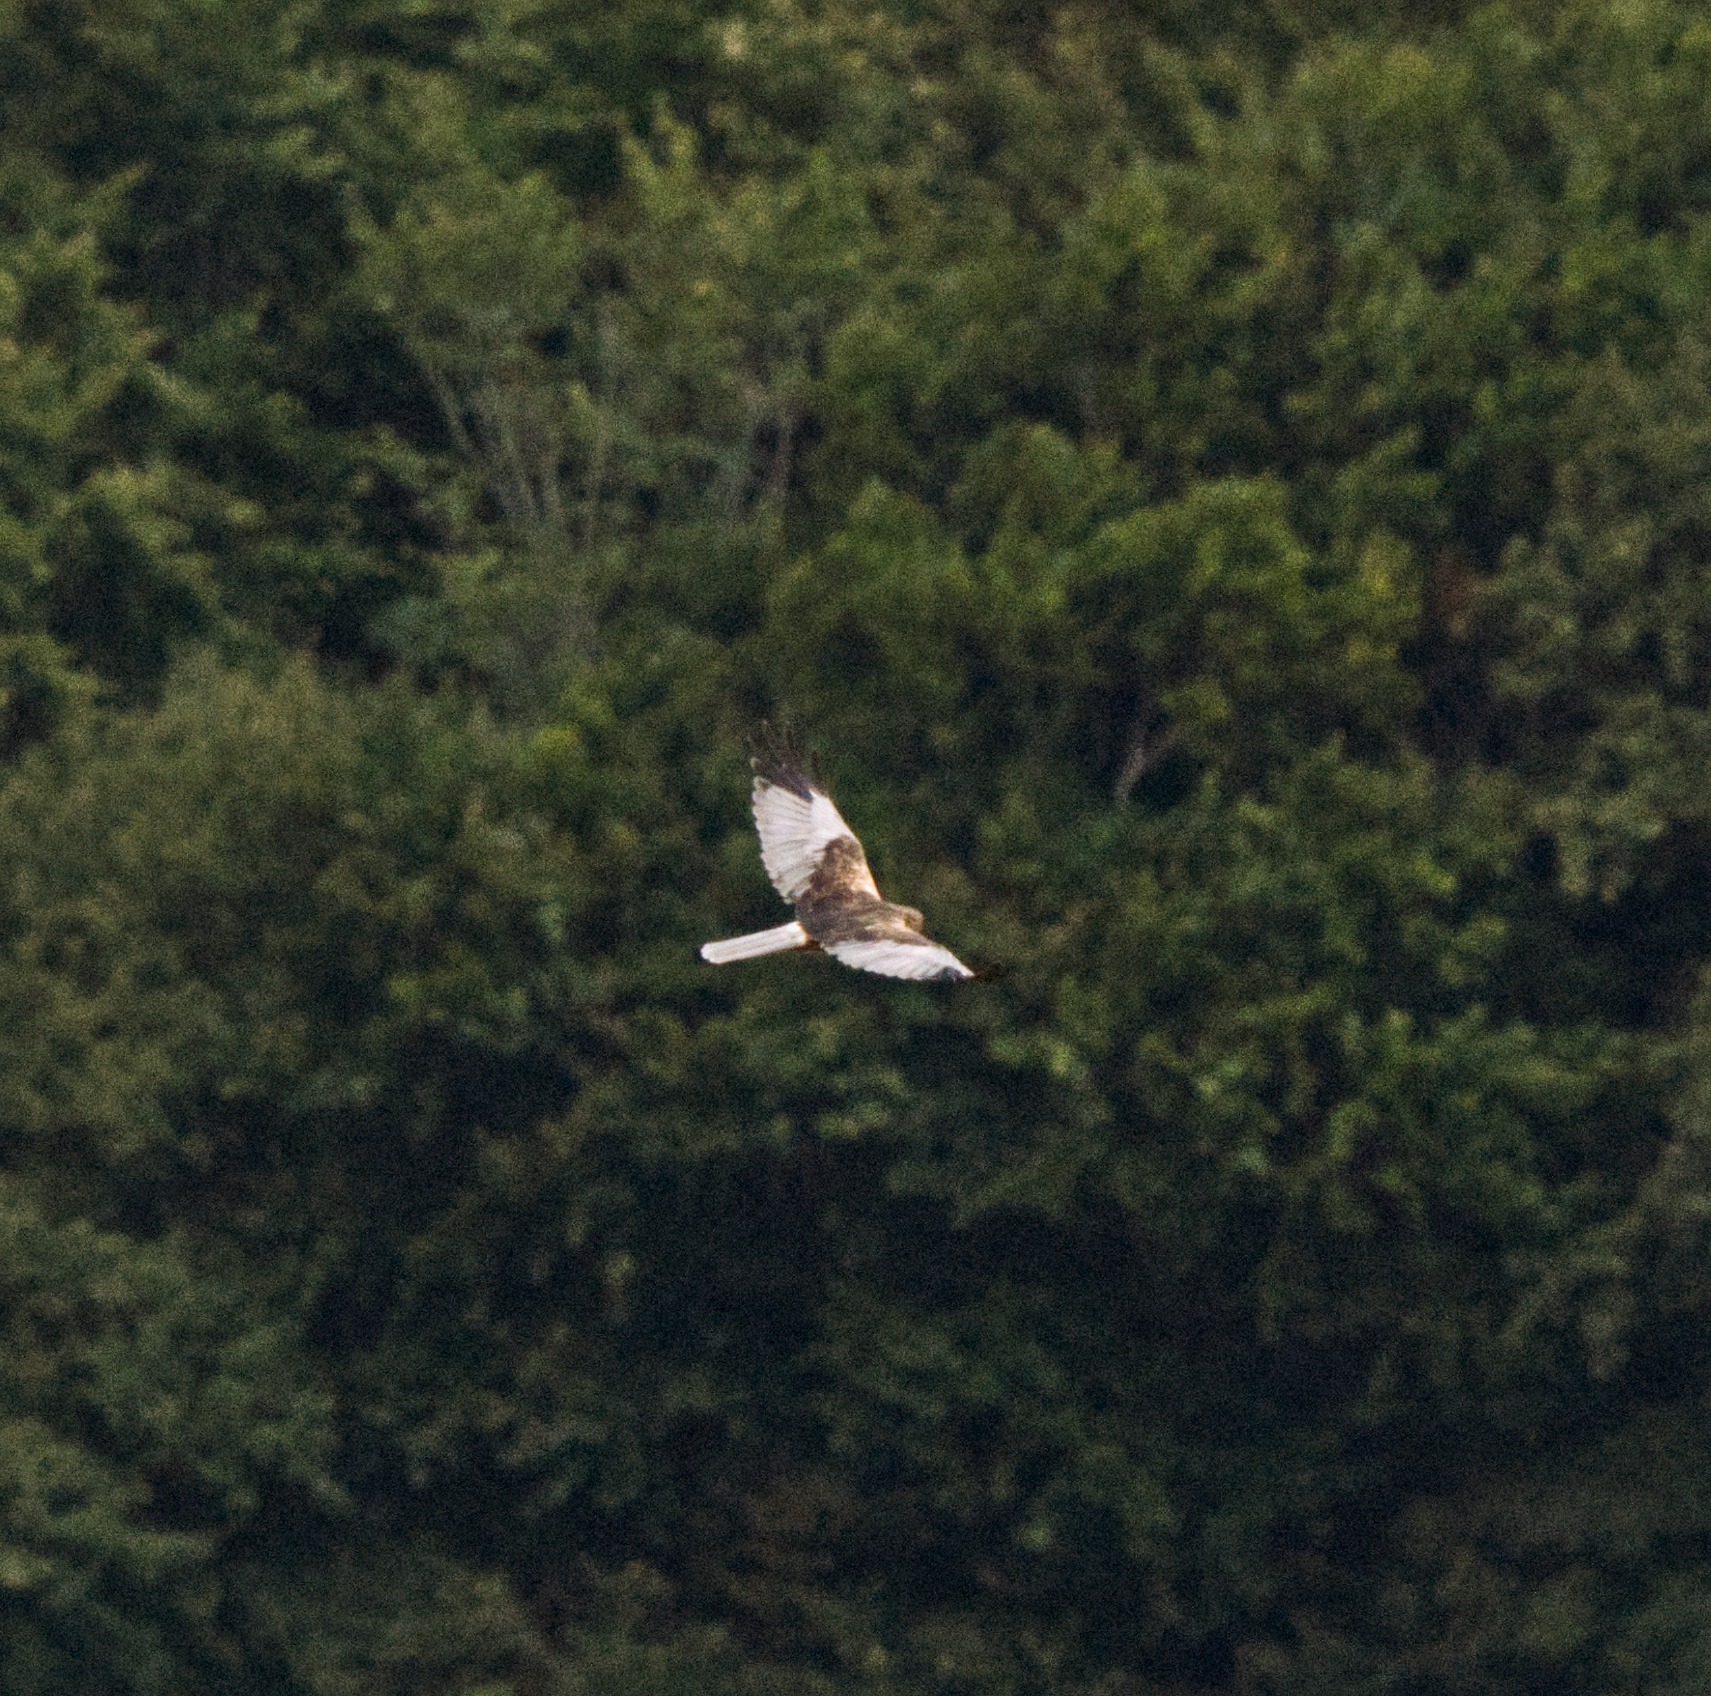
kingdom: Animalia
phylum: Chordata
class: Aves
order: Accipitriformes
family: Accipitridae
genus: Circus
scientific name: Circus aeruginosus
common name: Rørhøg
